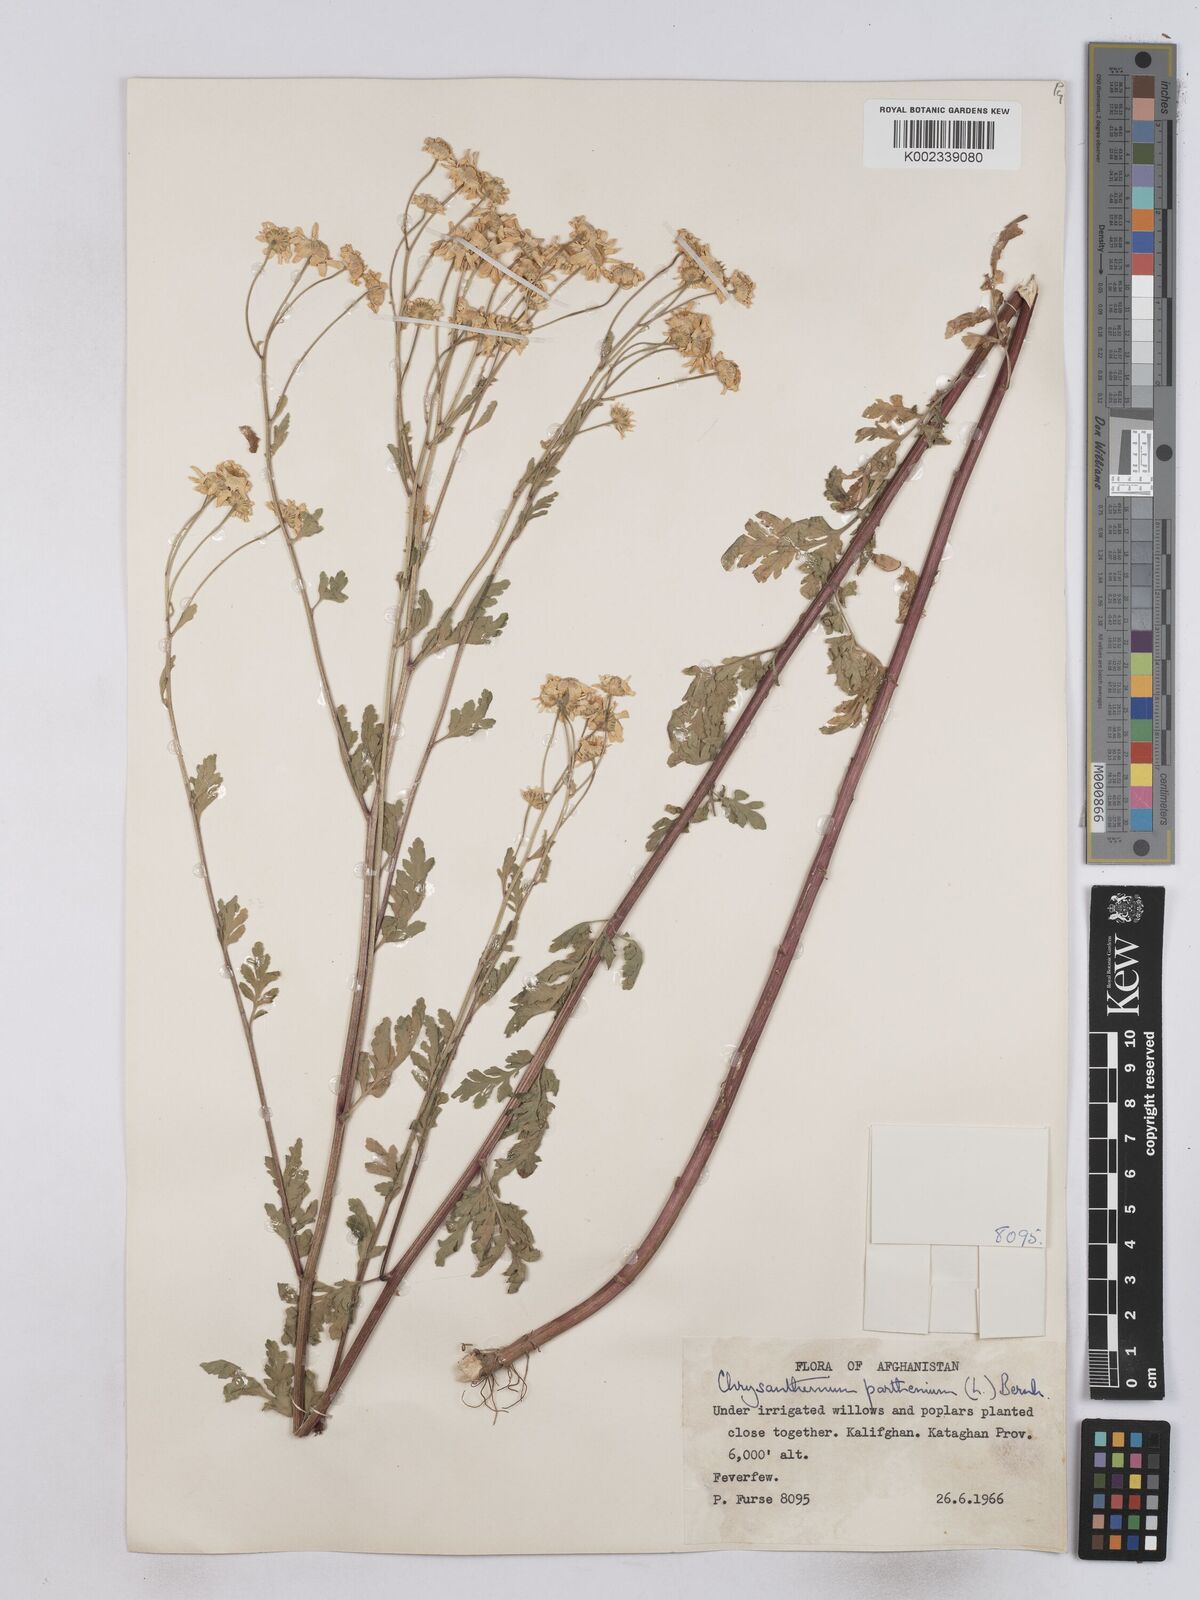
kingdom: Plantae
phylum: Tracheophyta
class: Magnoliopsida
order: Asterales
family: Asteraceae
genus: Tanacetum
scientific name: Tanacetum parthenium
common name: Feverfew
